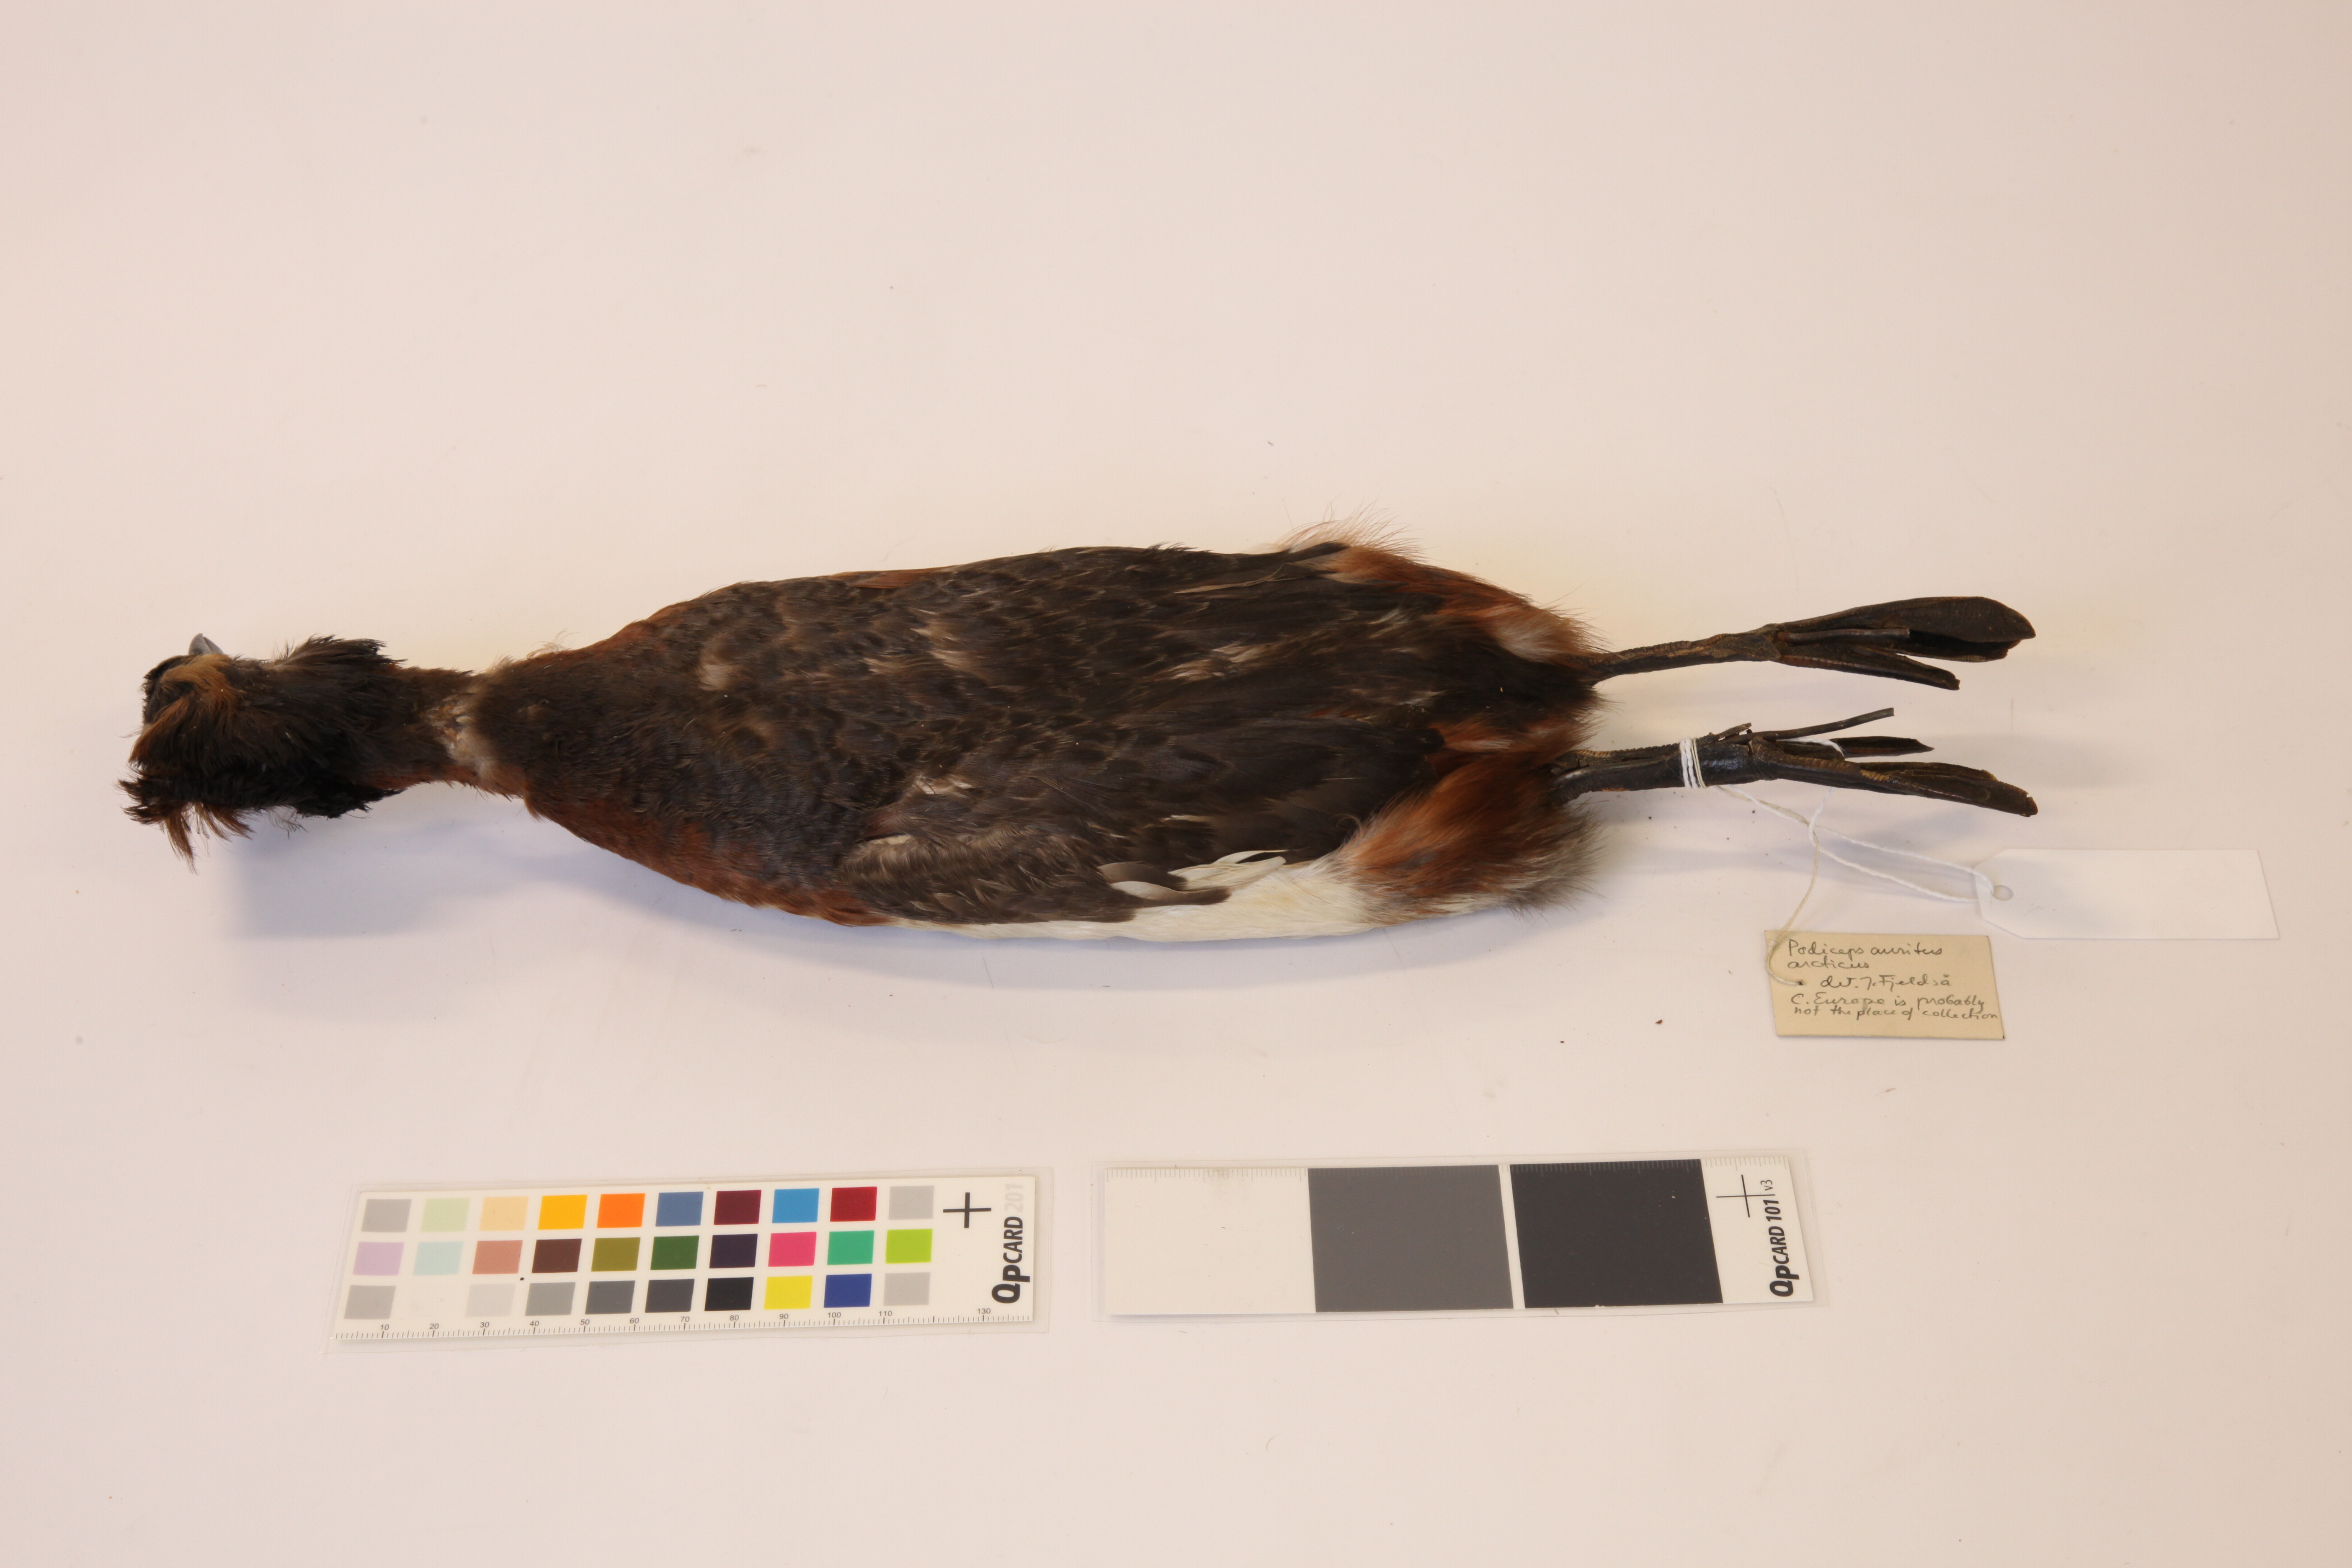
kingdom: Animalia
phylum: Chordata
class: Aves
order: Podicipediformes
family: Podicipedidae
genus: Podiceps
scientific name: Podiceps auritus
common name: Horned grebe
